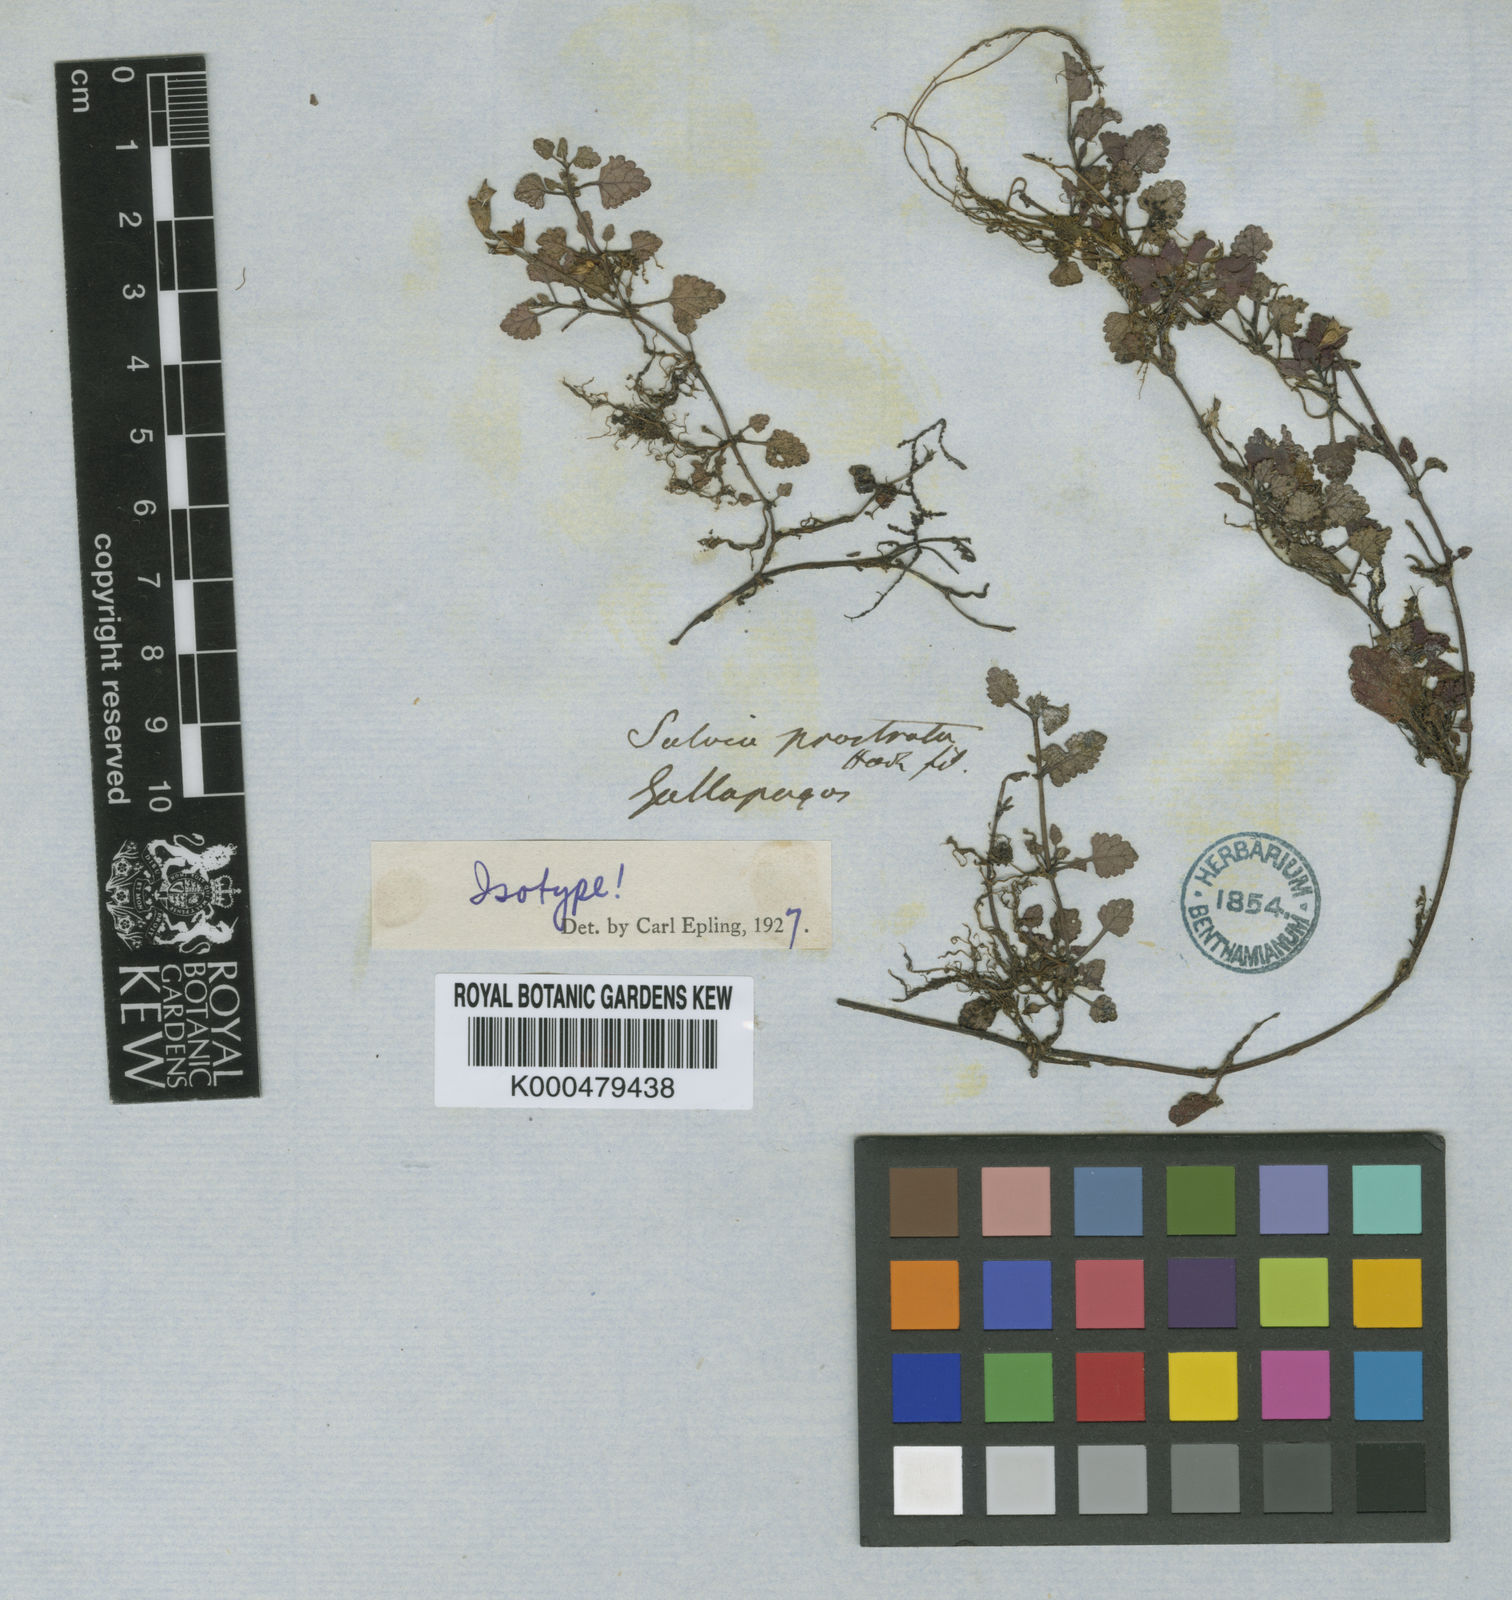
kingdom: Plantae
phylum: Tracheophyta
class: Magnoliopsida
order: Lamiales
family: Lamiaceae
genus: Salvia
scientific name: Salvia prostrata
